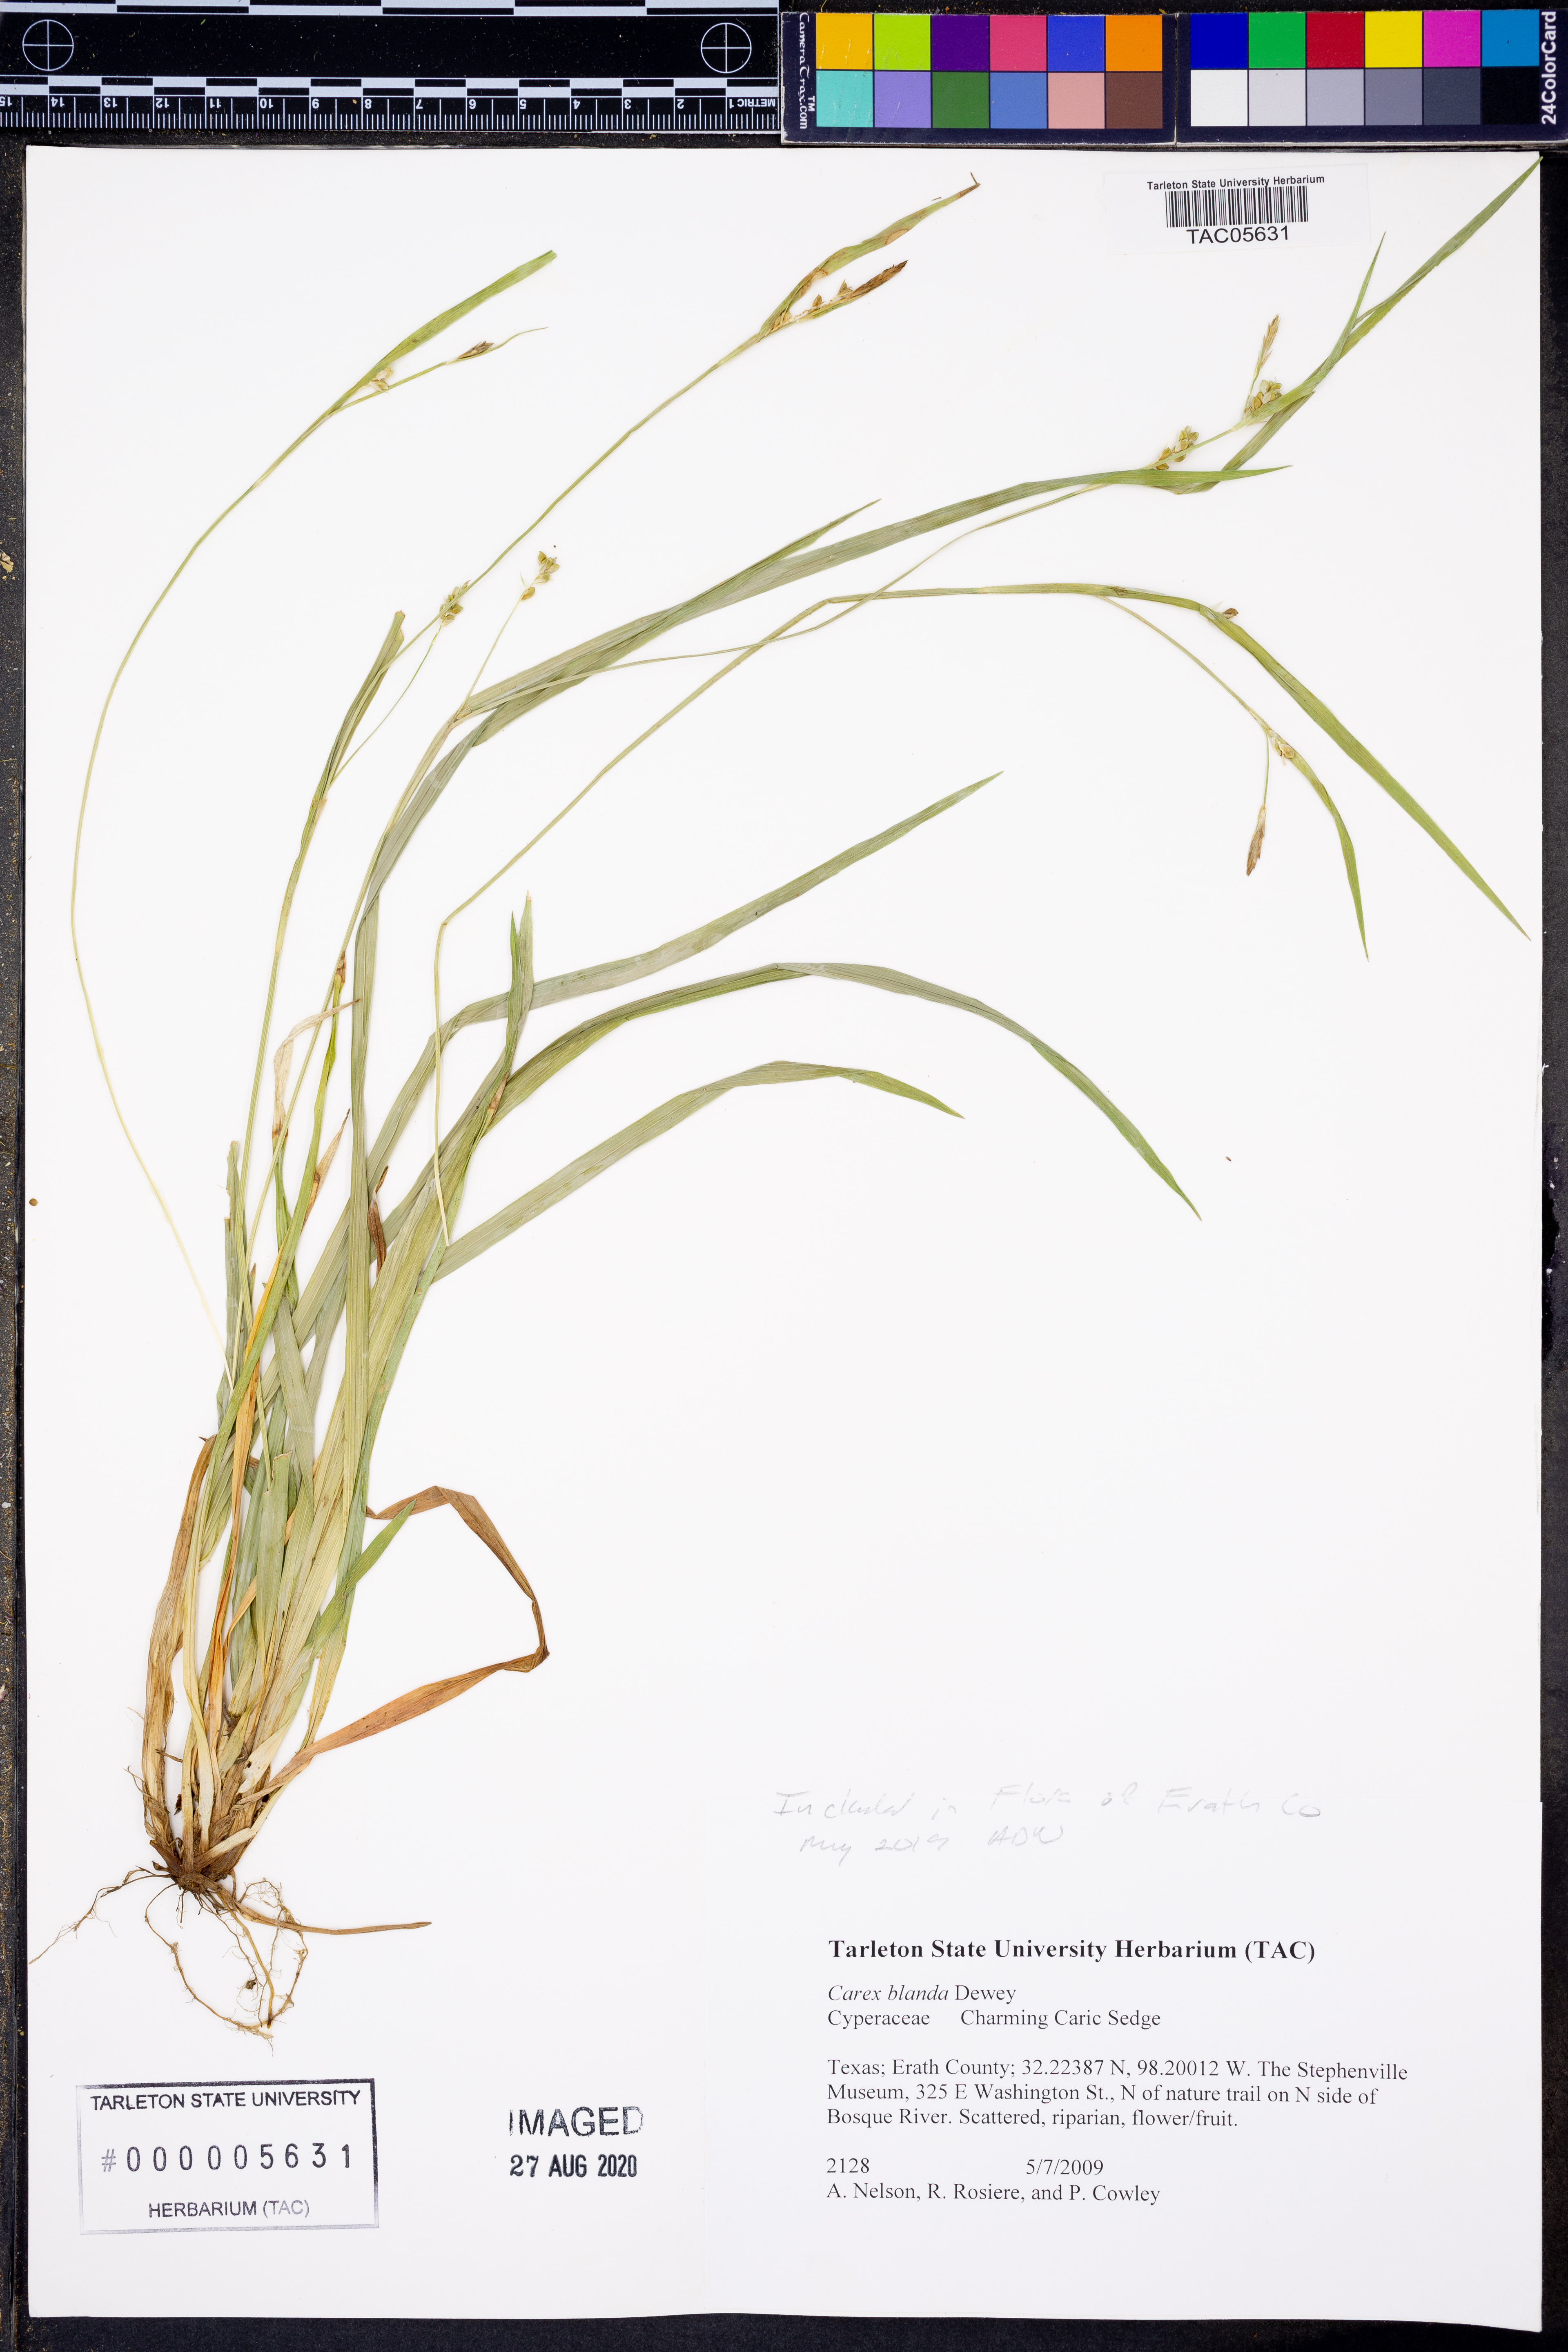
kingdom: Plantae
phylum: Tracheophyta
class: Liliopsida
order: Poales
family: Cyperaceae
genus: Carex
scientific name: Carex blanda
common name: Bland sedge
